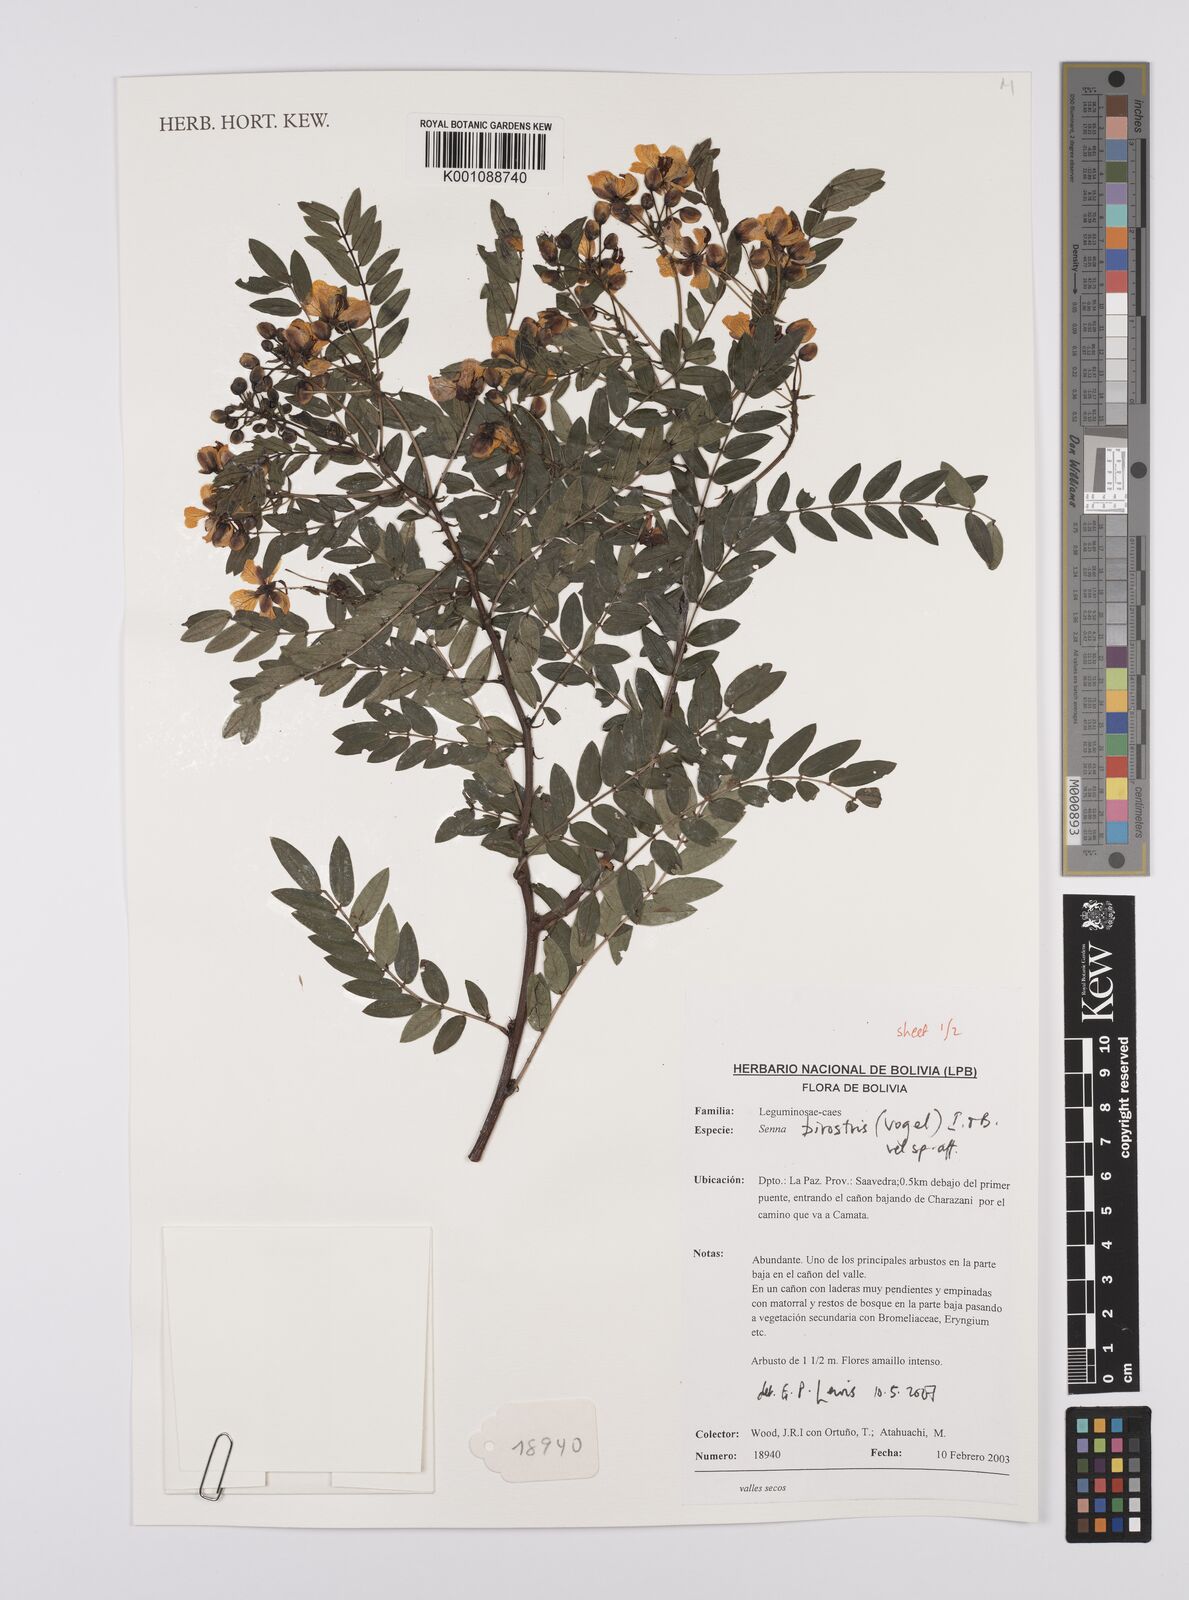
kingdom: Plantae
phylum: Tracheophyta
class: Magnoliopsida
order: Fabales
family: Fabaceae
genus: Senna
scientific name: Senna birostris
